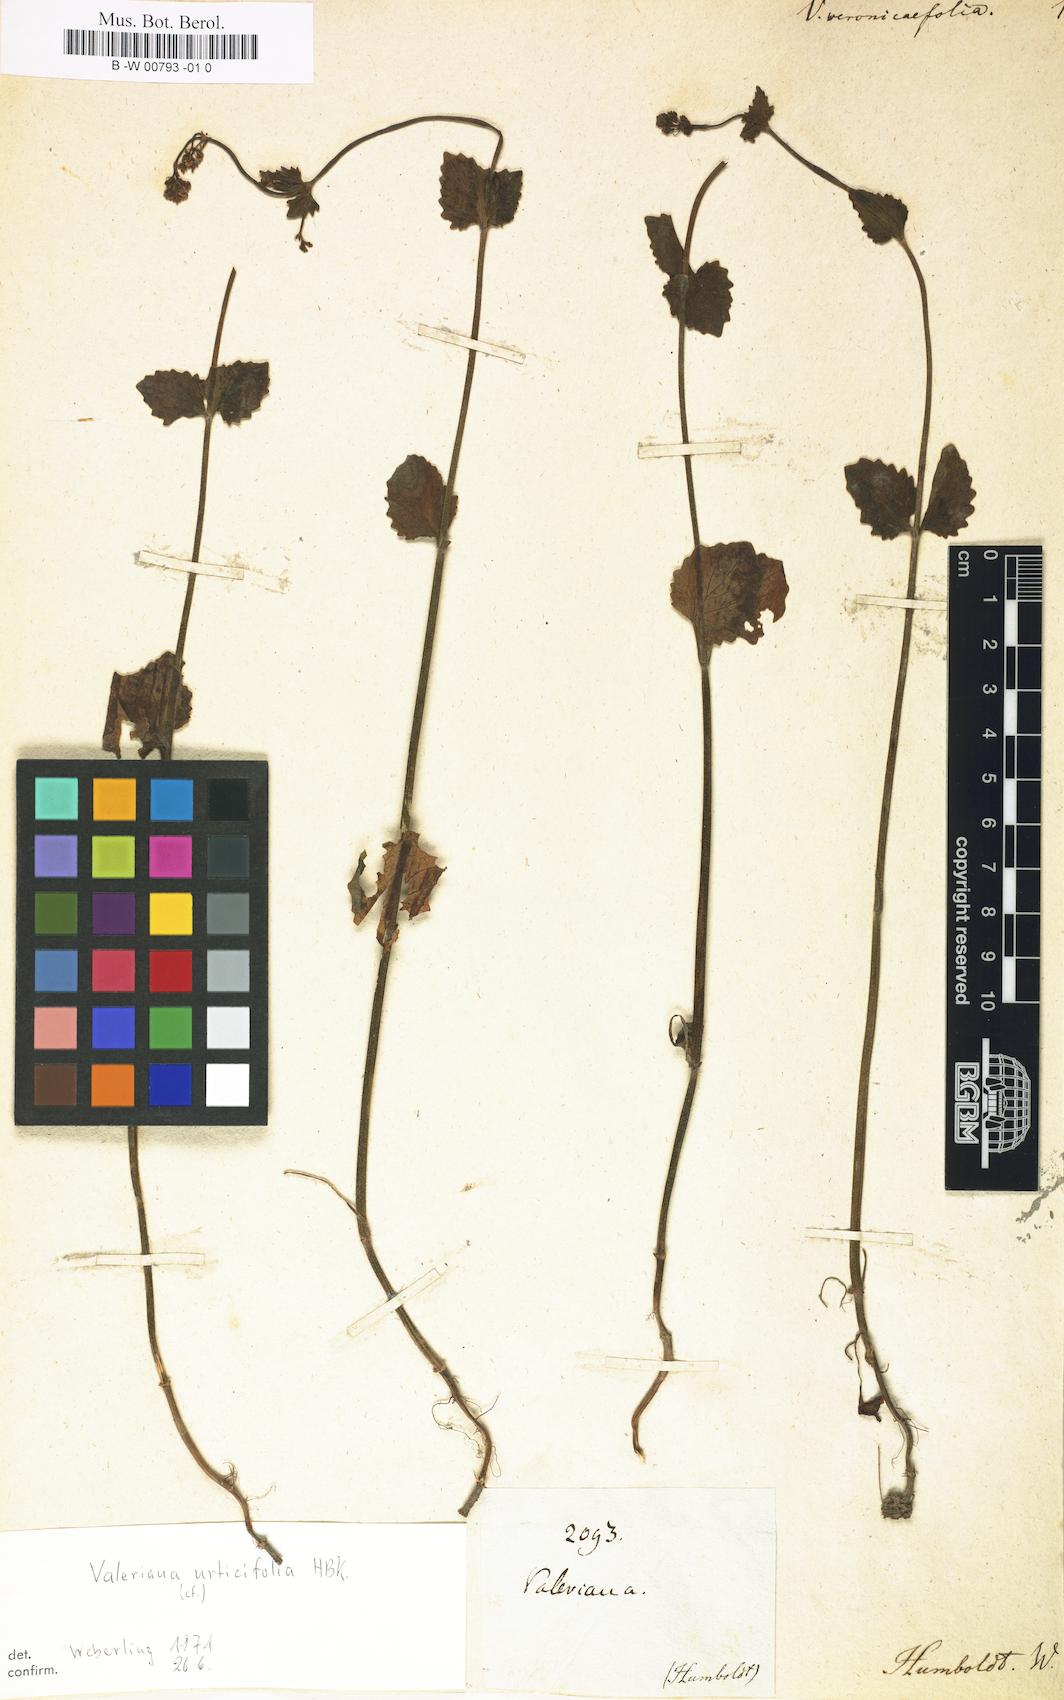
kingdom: Plantae
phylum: Tracheophyta
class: Magnoliopsida
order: Dipsacales
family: Caprifoliaceae
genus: Valeriana
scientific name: Valeriana urticifolia
